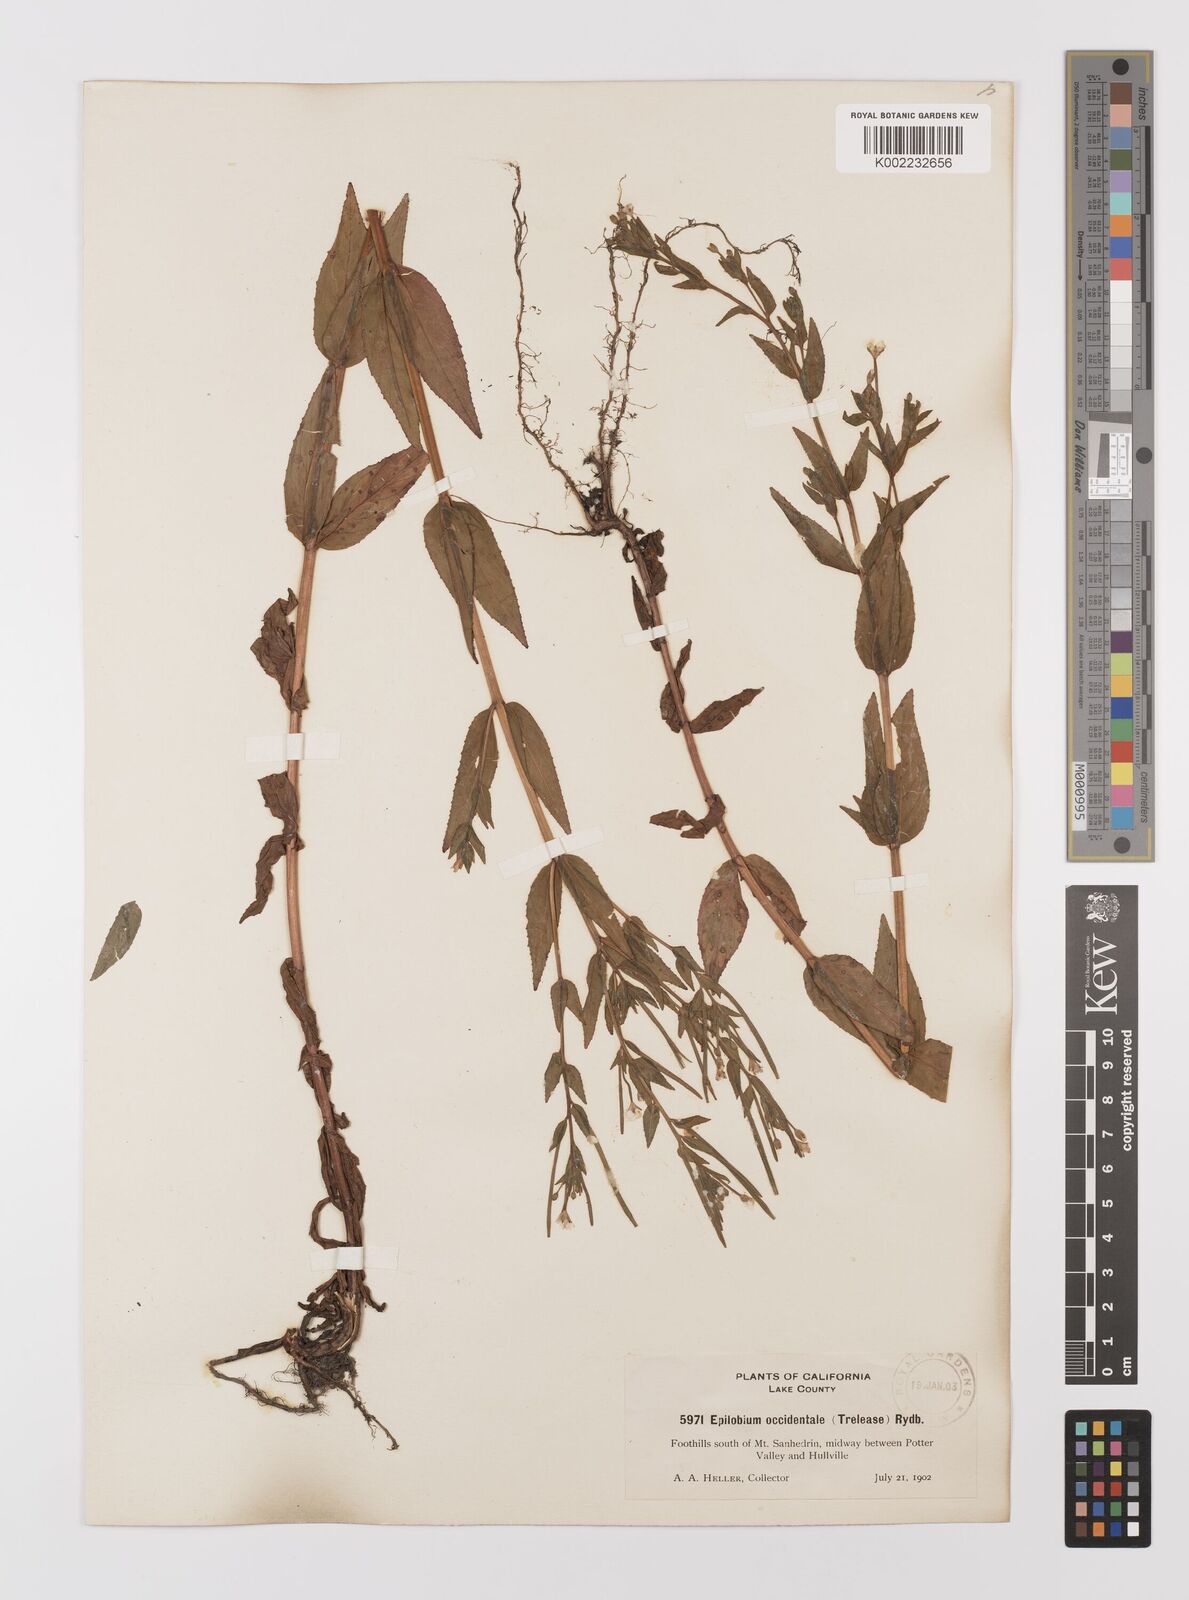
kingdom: Plantae
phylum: Tracheophyta
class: Magnoliopsida
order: Myrtales
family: Onagraceae
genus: Epilobium
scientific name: Epilobium ciliatum
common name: American willowherb
